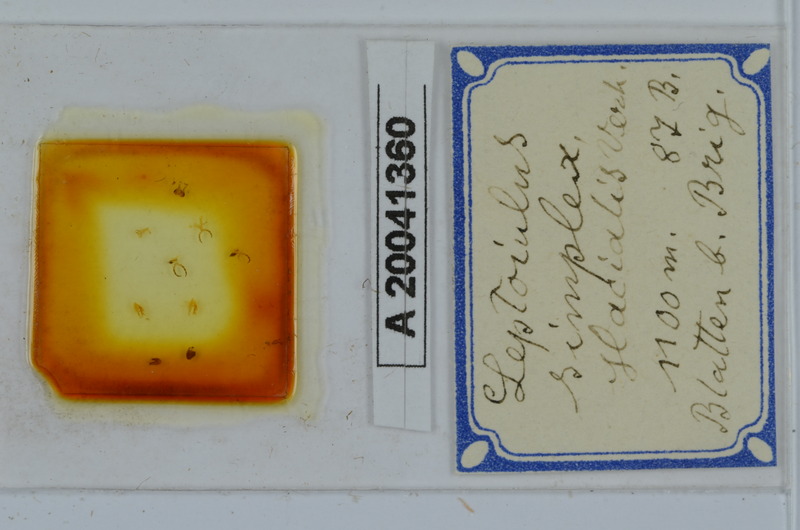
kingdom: Animalia
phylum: Arthropoda
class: Diplopoda
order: Julida
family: Julidae
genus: Leptoiulus
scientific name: Leptoiulus simplex
